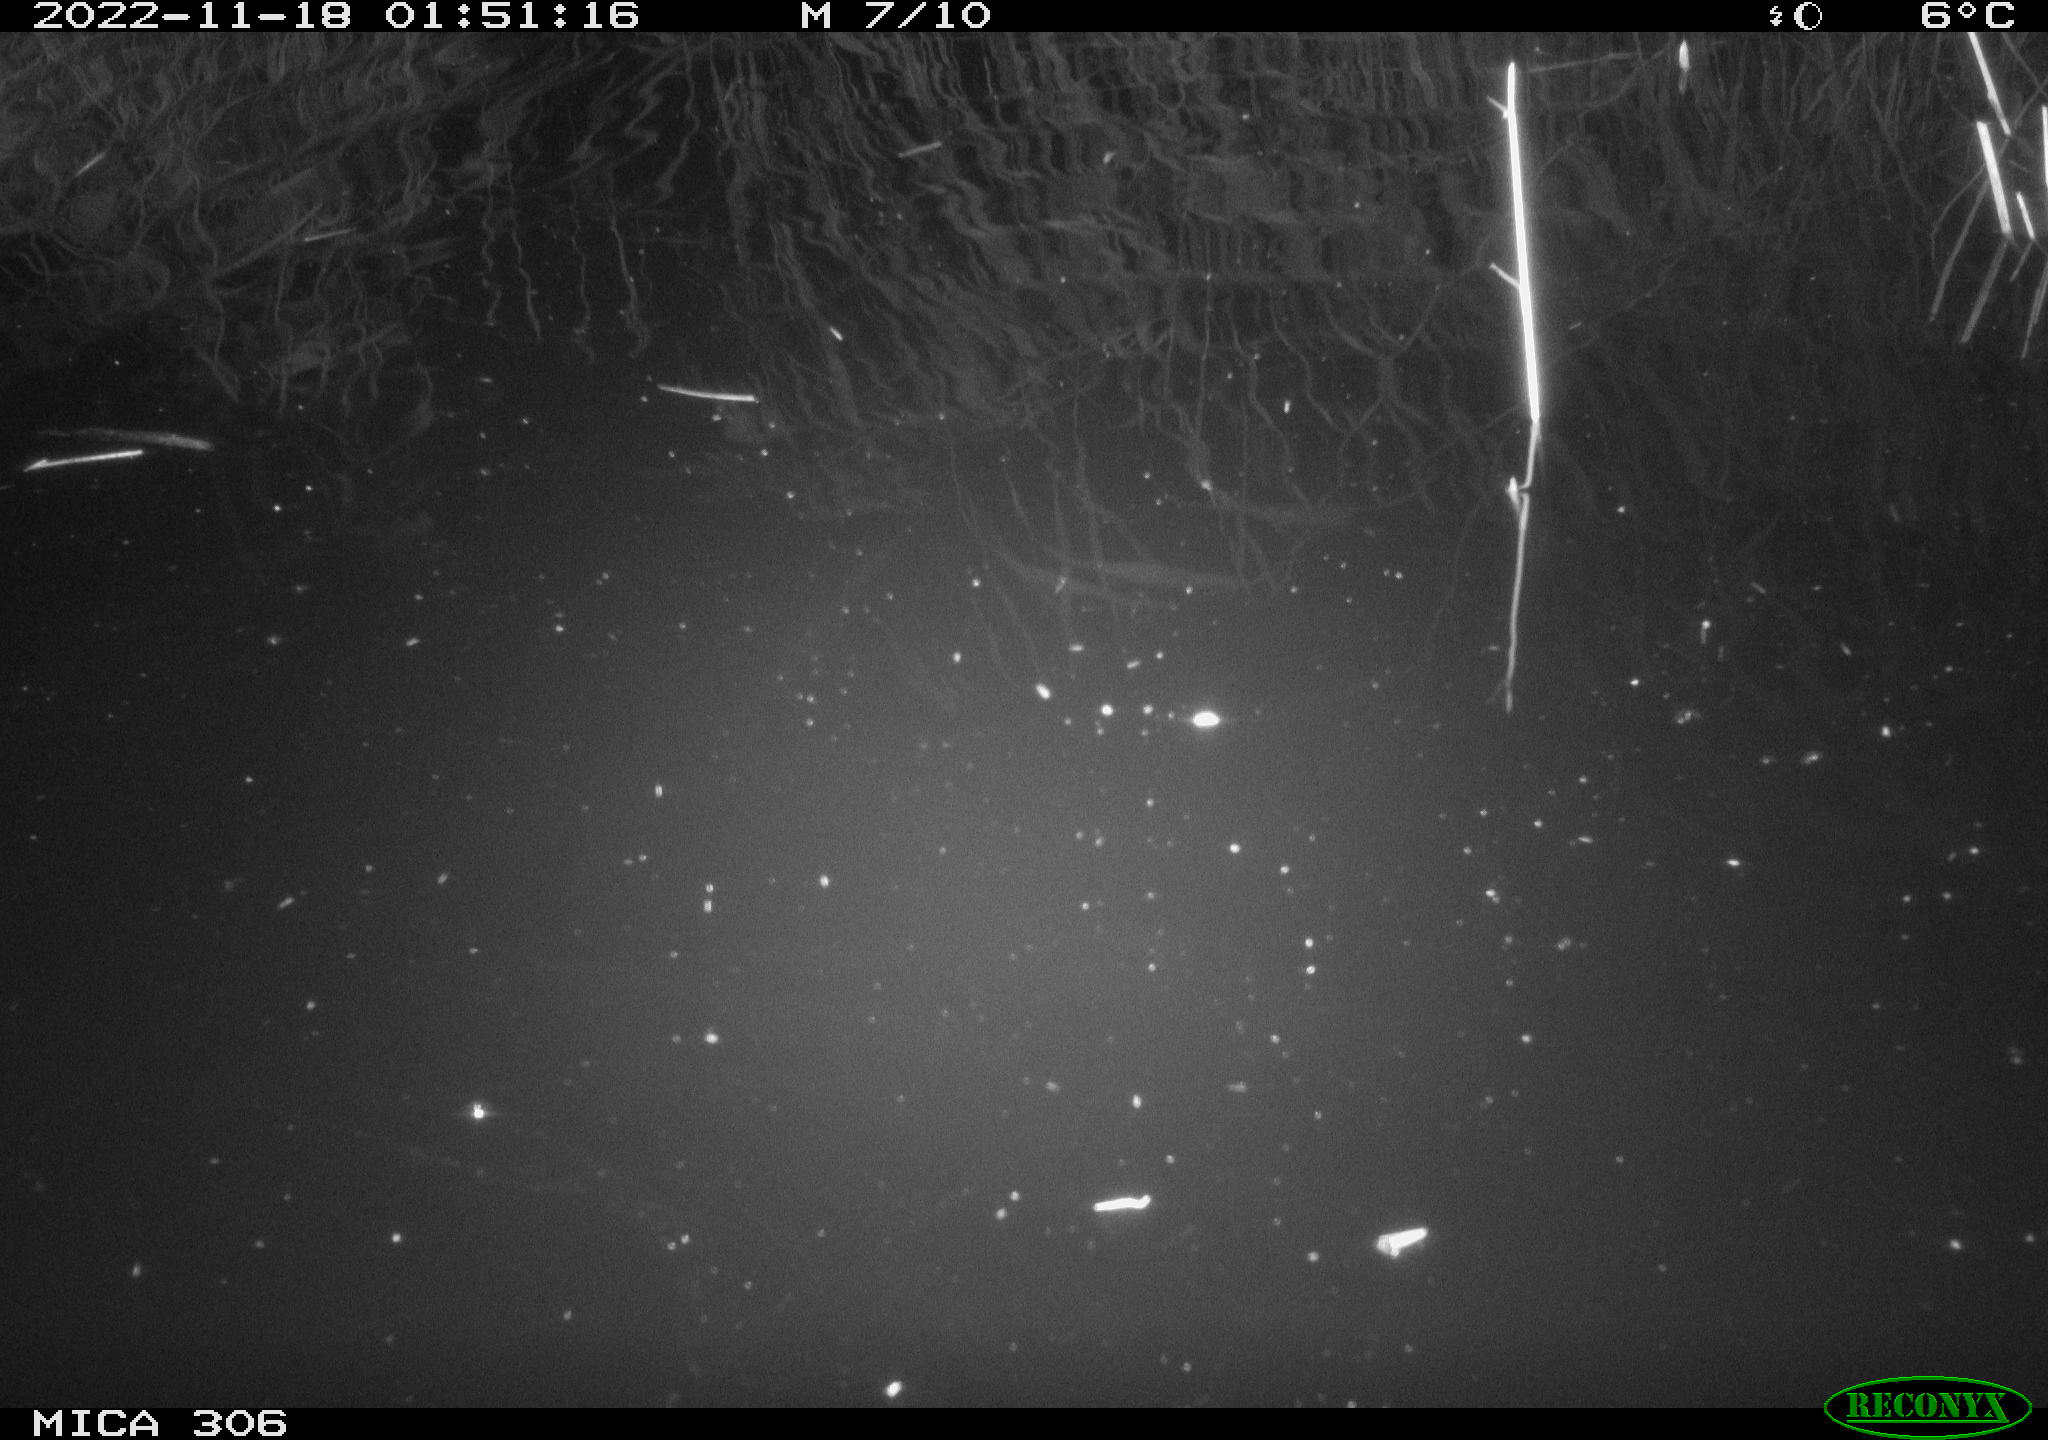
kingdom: Animalia
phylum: Chordata
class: Mammalia
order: Rodentia
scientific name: Rodentia
